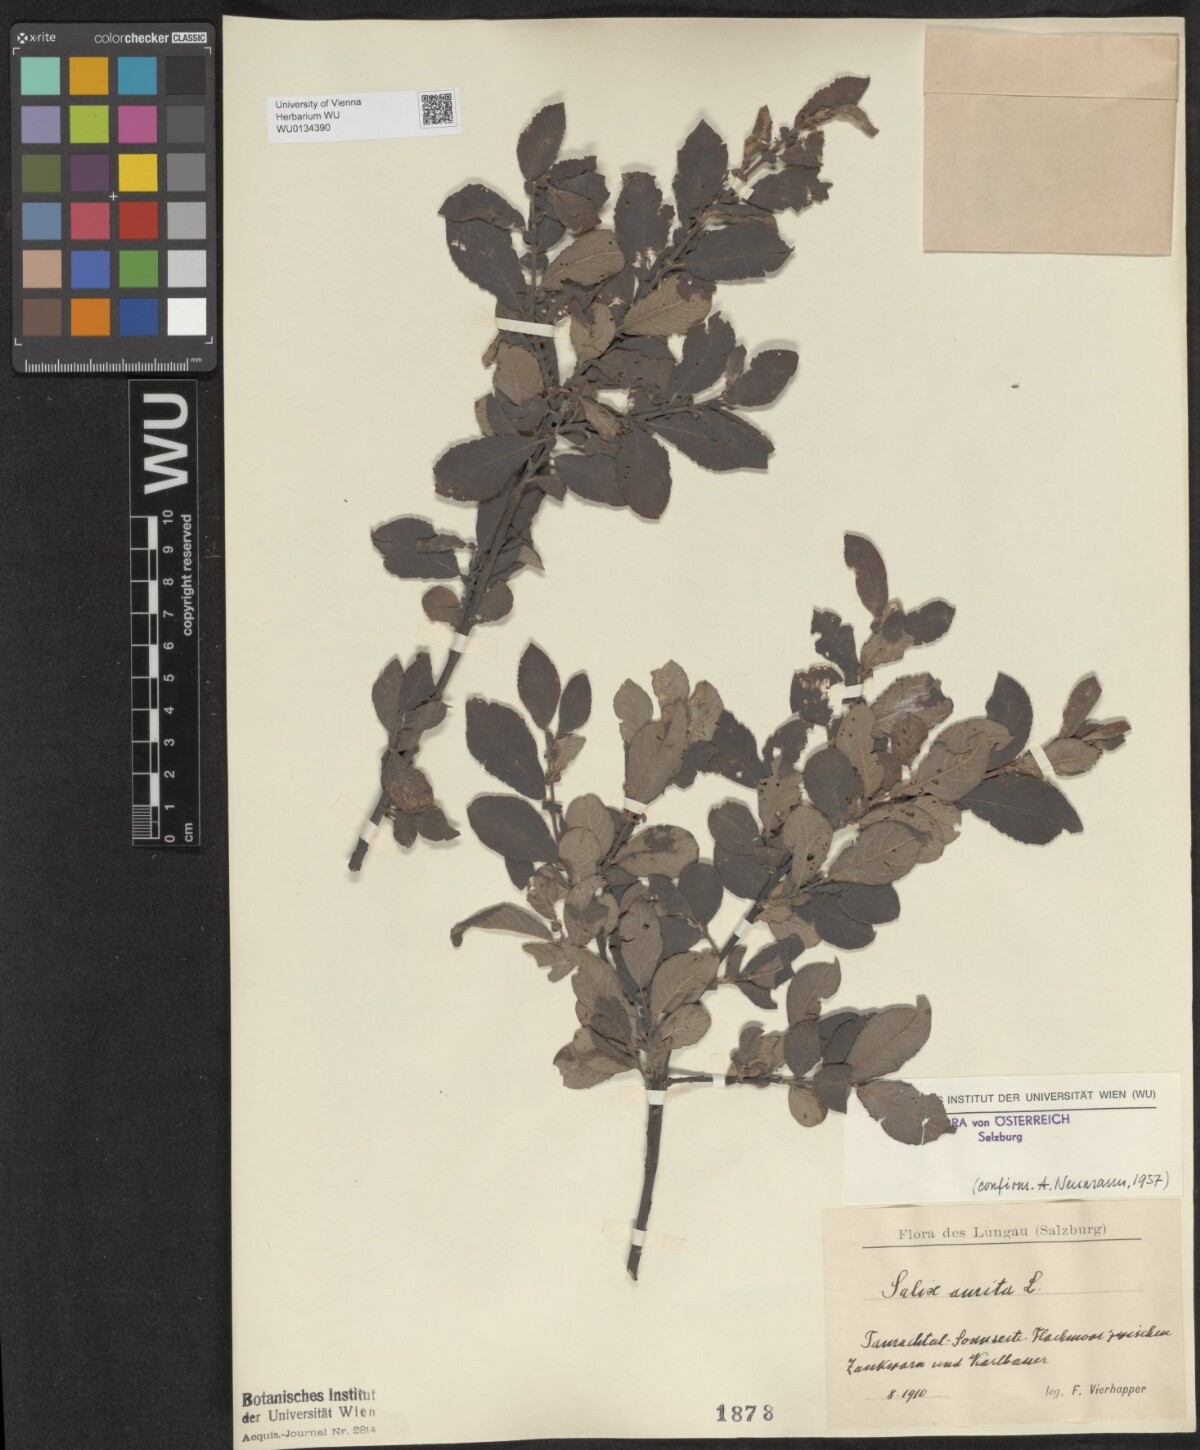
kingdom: Plantae
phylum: Tracheophyta
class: Magnoliopsida
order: Malpighiales
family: Salicaceae
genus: Salix
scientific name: Salix aurita
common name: Eared willow
